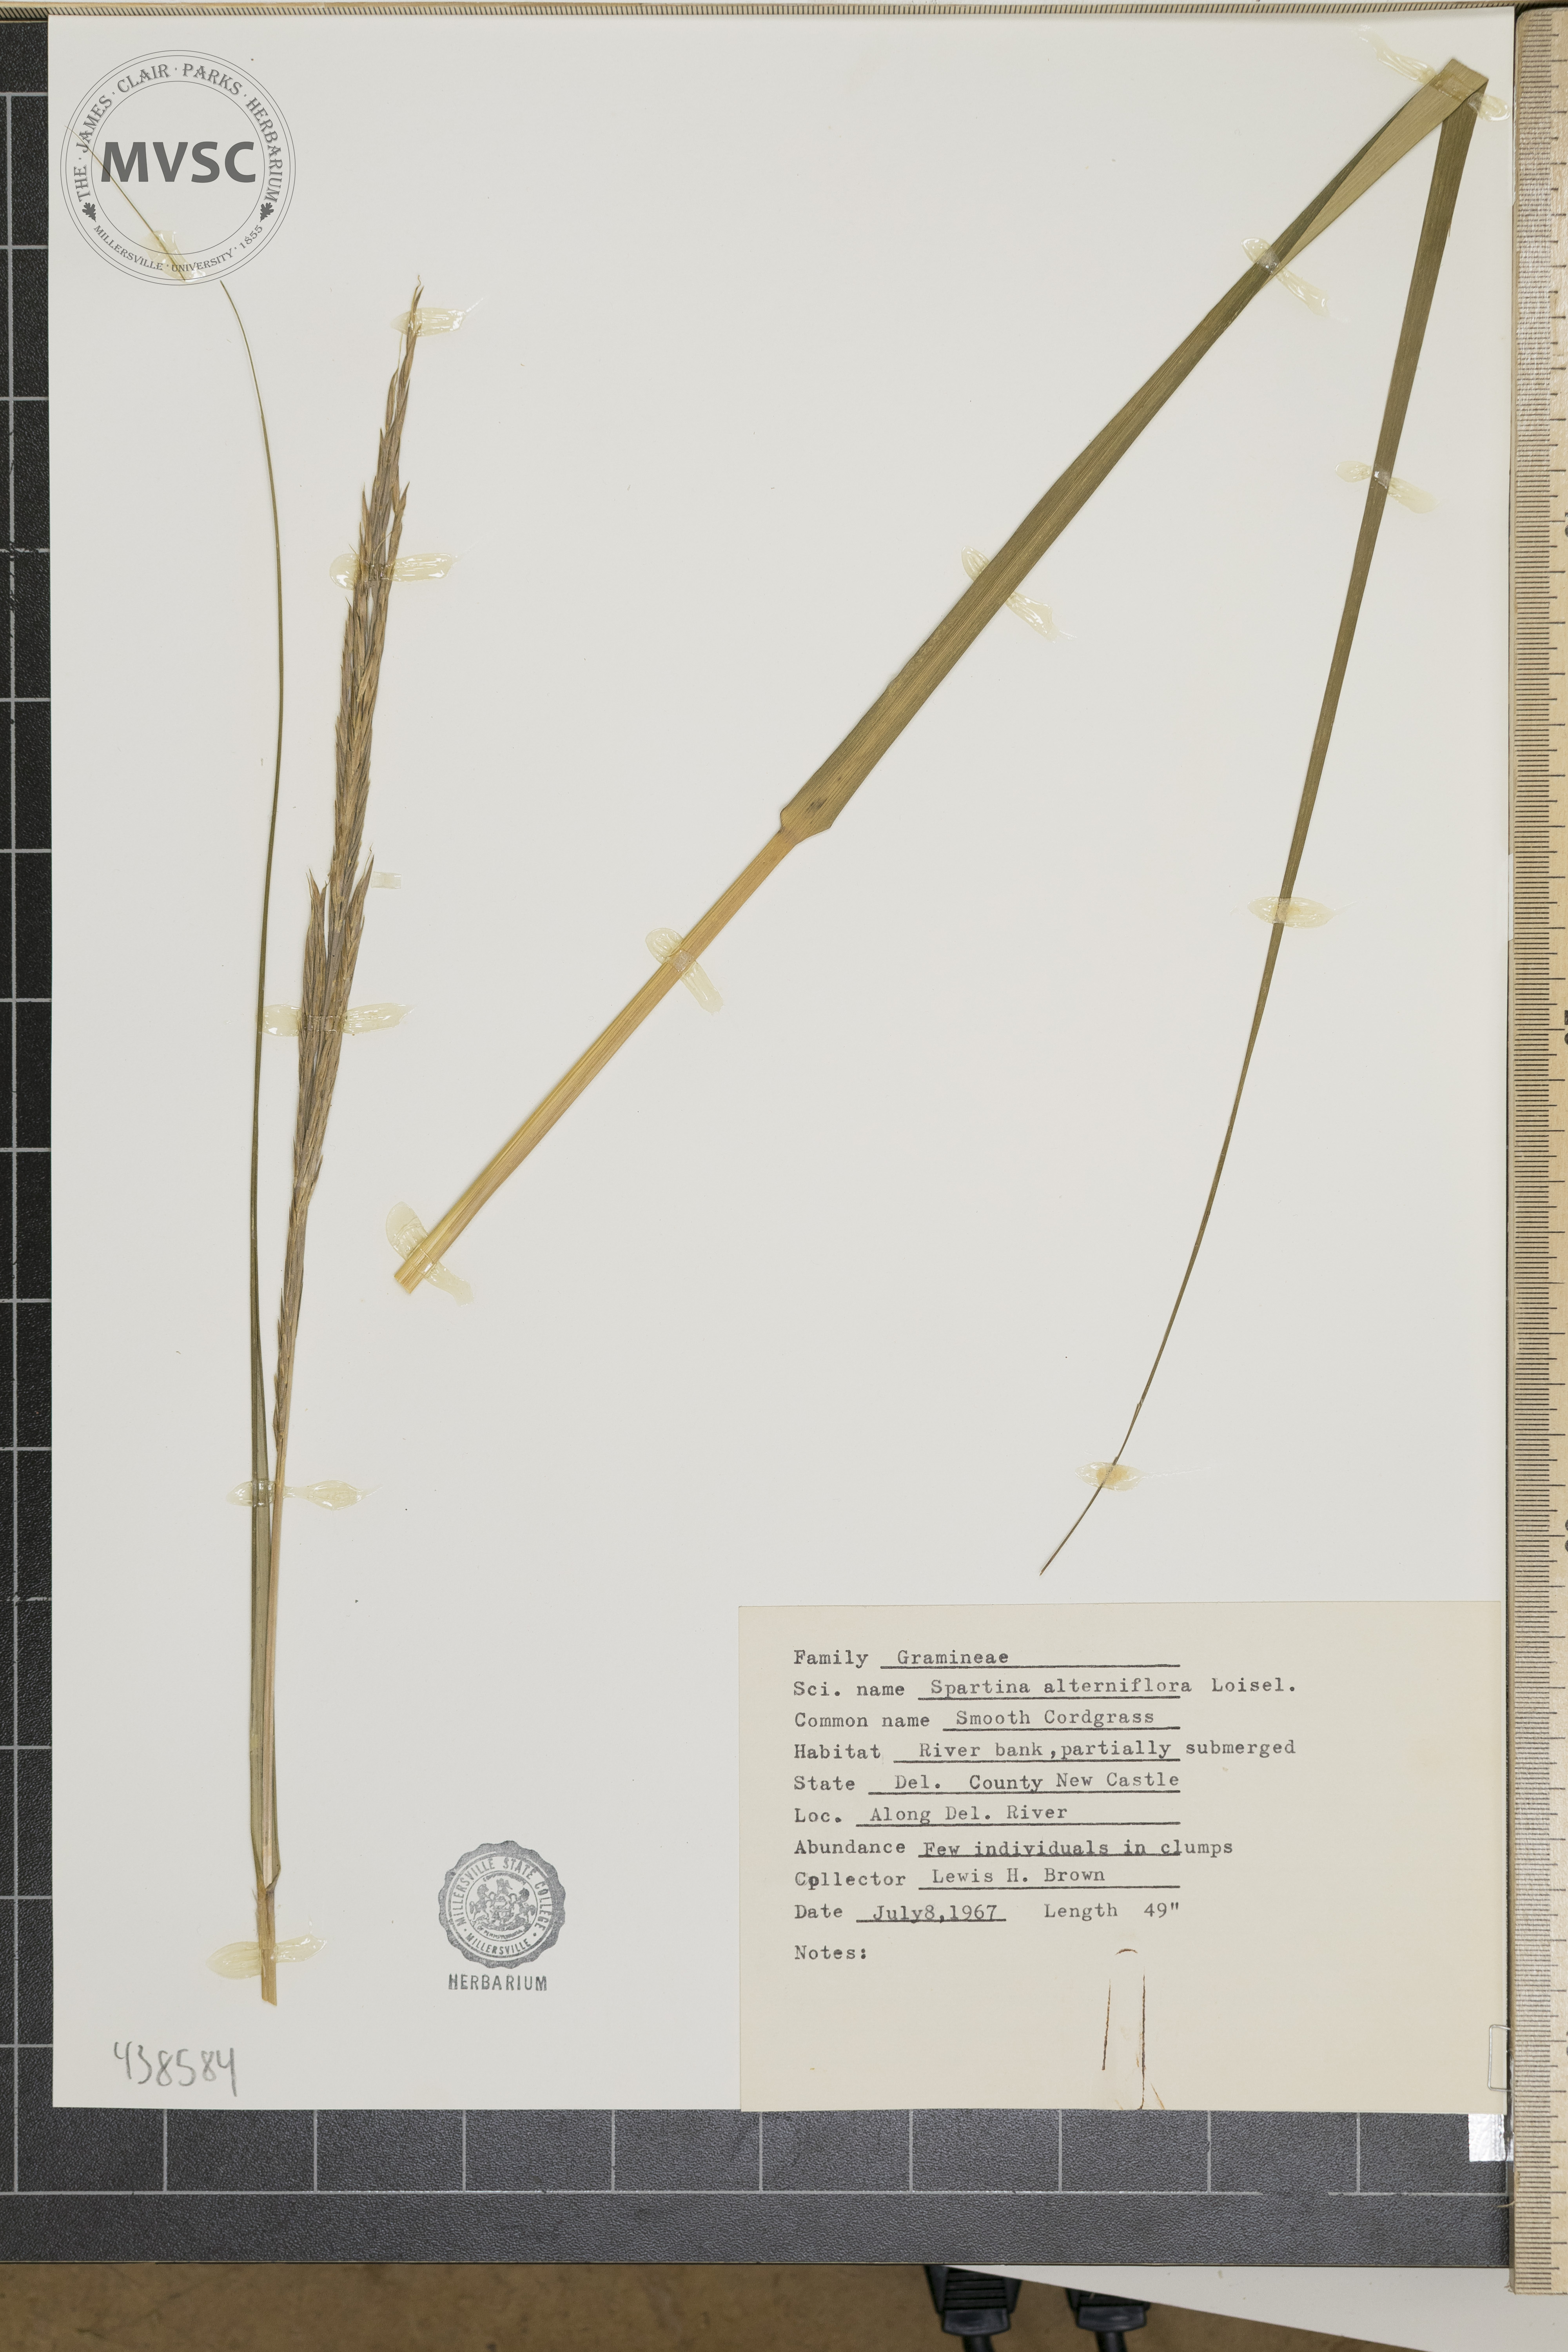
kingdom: Plantae
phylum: Tracheophyta
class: Liliopsida
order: Poales
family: Poaceae
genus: Sporobolus
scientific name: Sporobolus alterniflorus
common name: Atlantic cordgrass
